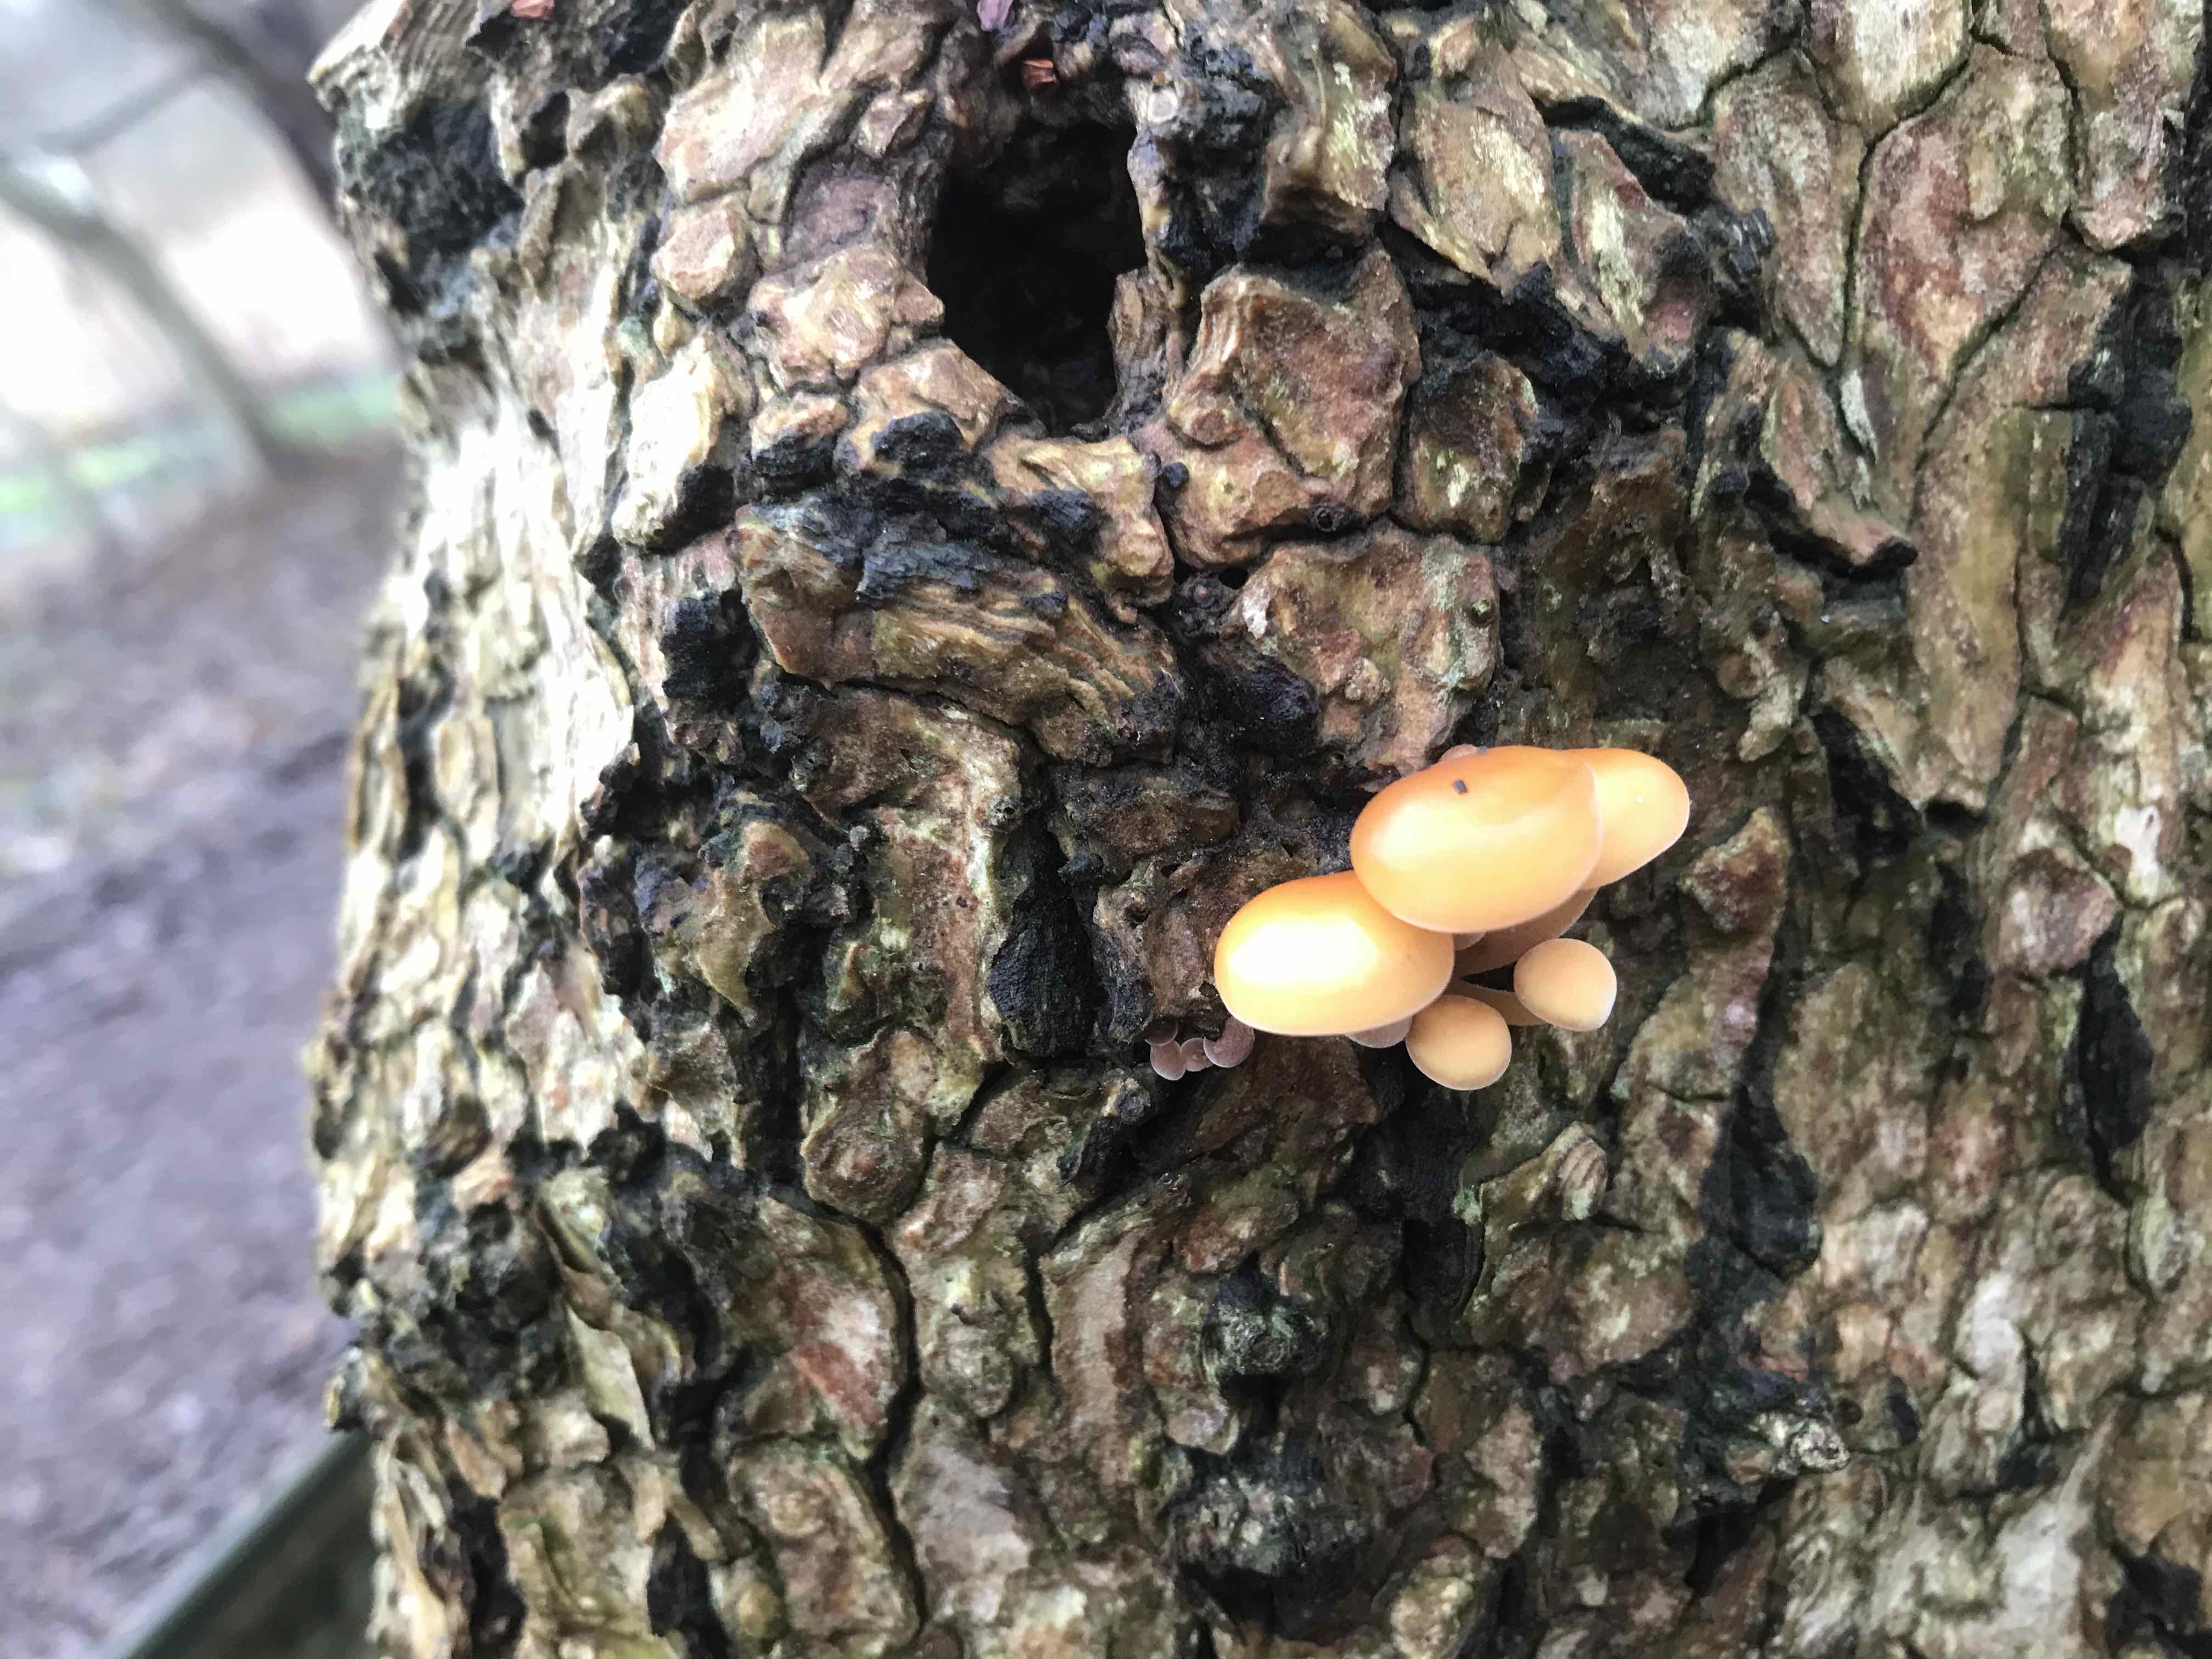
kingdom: Fungi
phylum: Basidiomycota
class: Agaricomycetes
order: Agaricales
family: Physalacriaceae
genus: Flammulina
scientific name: Flammulina velutipes
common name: gul fløjlsfod
